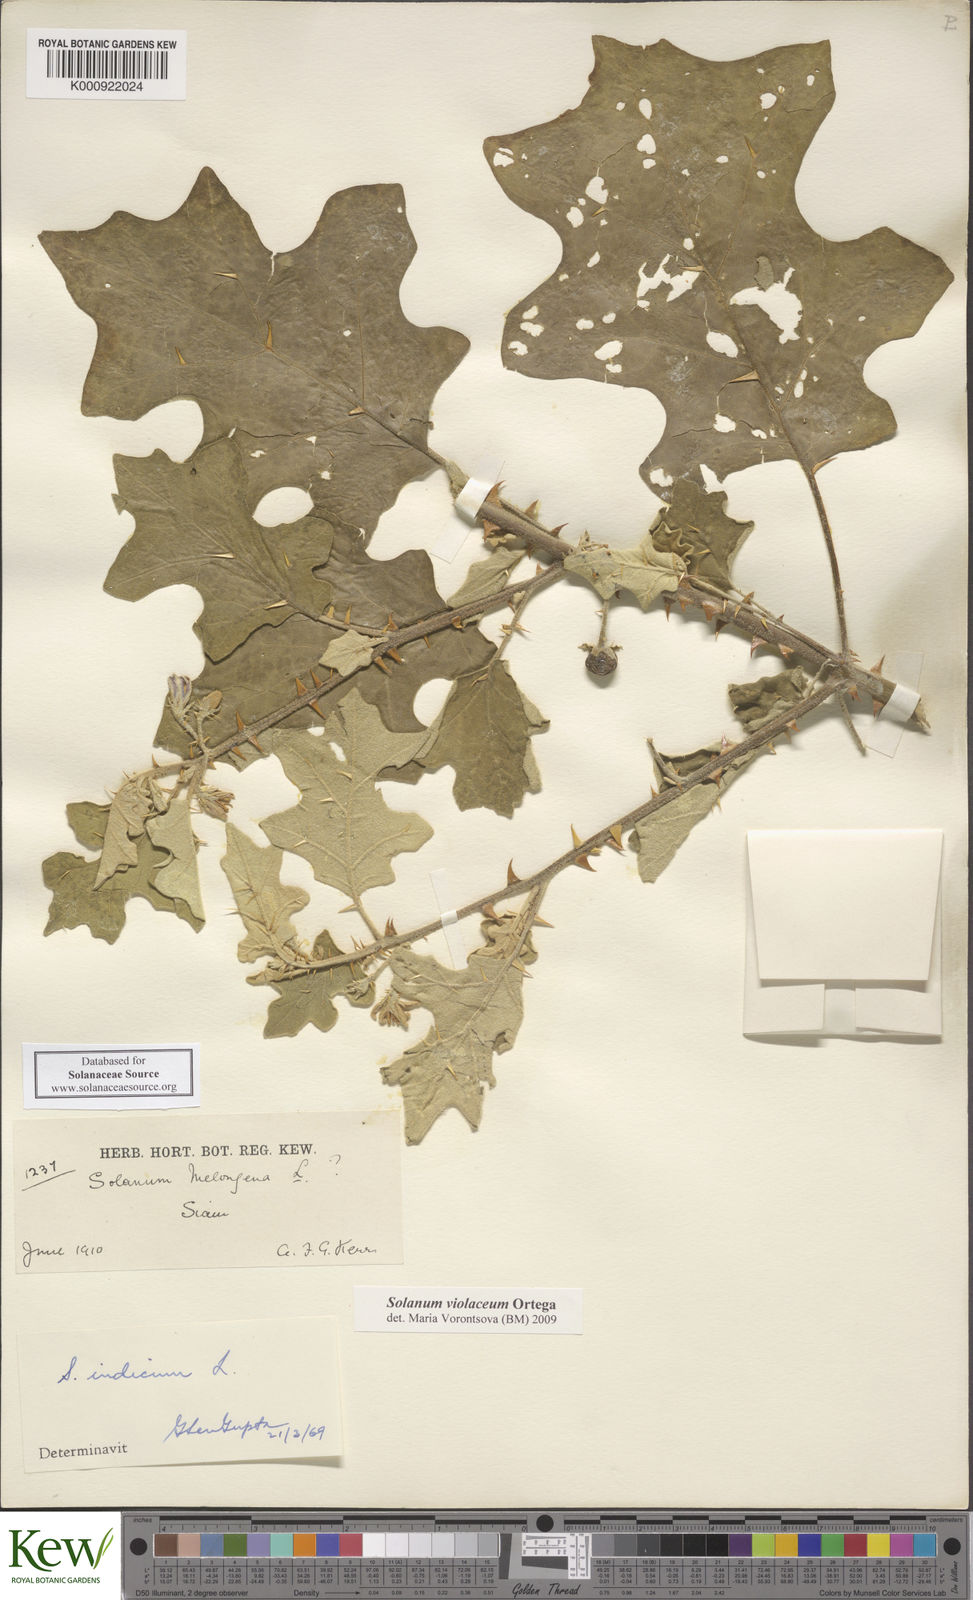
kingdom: Plantae
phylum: Tracheophyta
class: Magnoliopsida
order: Solanales
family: Solanaceae
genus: Solanum
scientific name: Solanum violaceum
